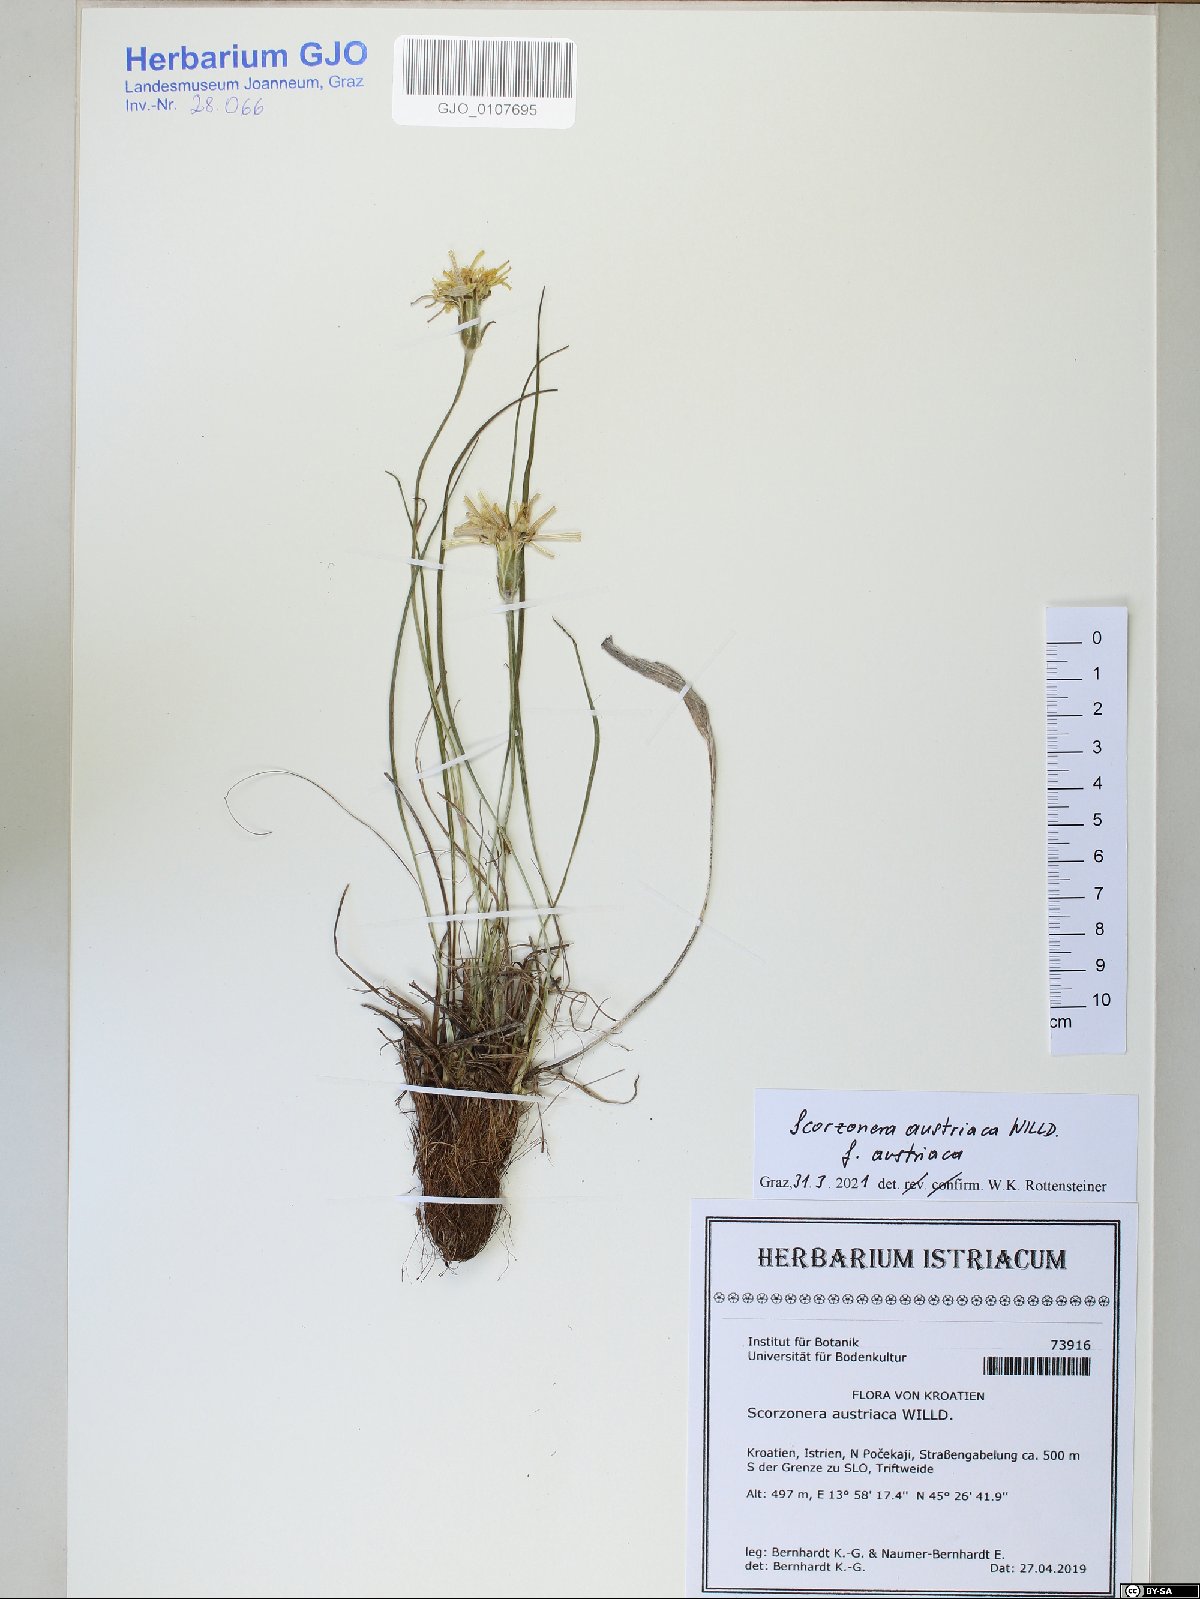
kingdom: Plantae
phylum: Tracheophyta
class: Magnoliopsida
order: Asterales
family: Asteraceae
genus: Takhtajaniantha
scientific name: Takhtajaniantha austriaca
